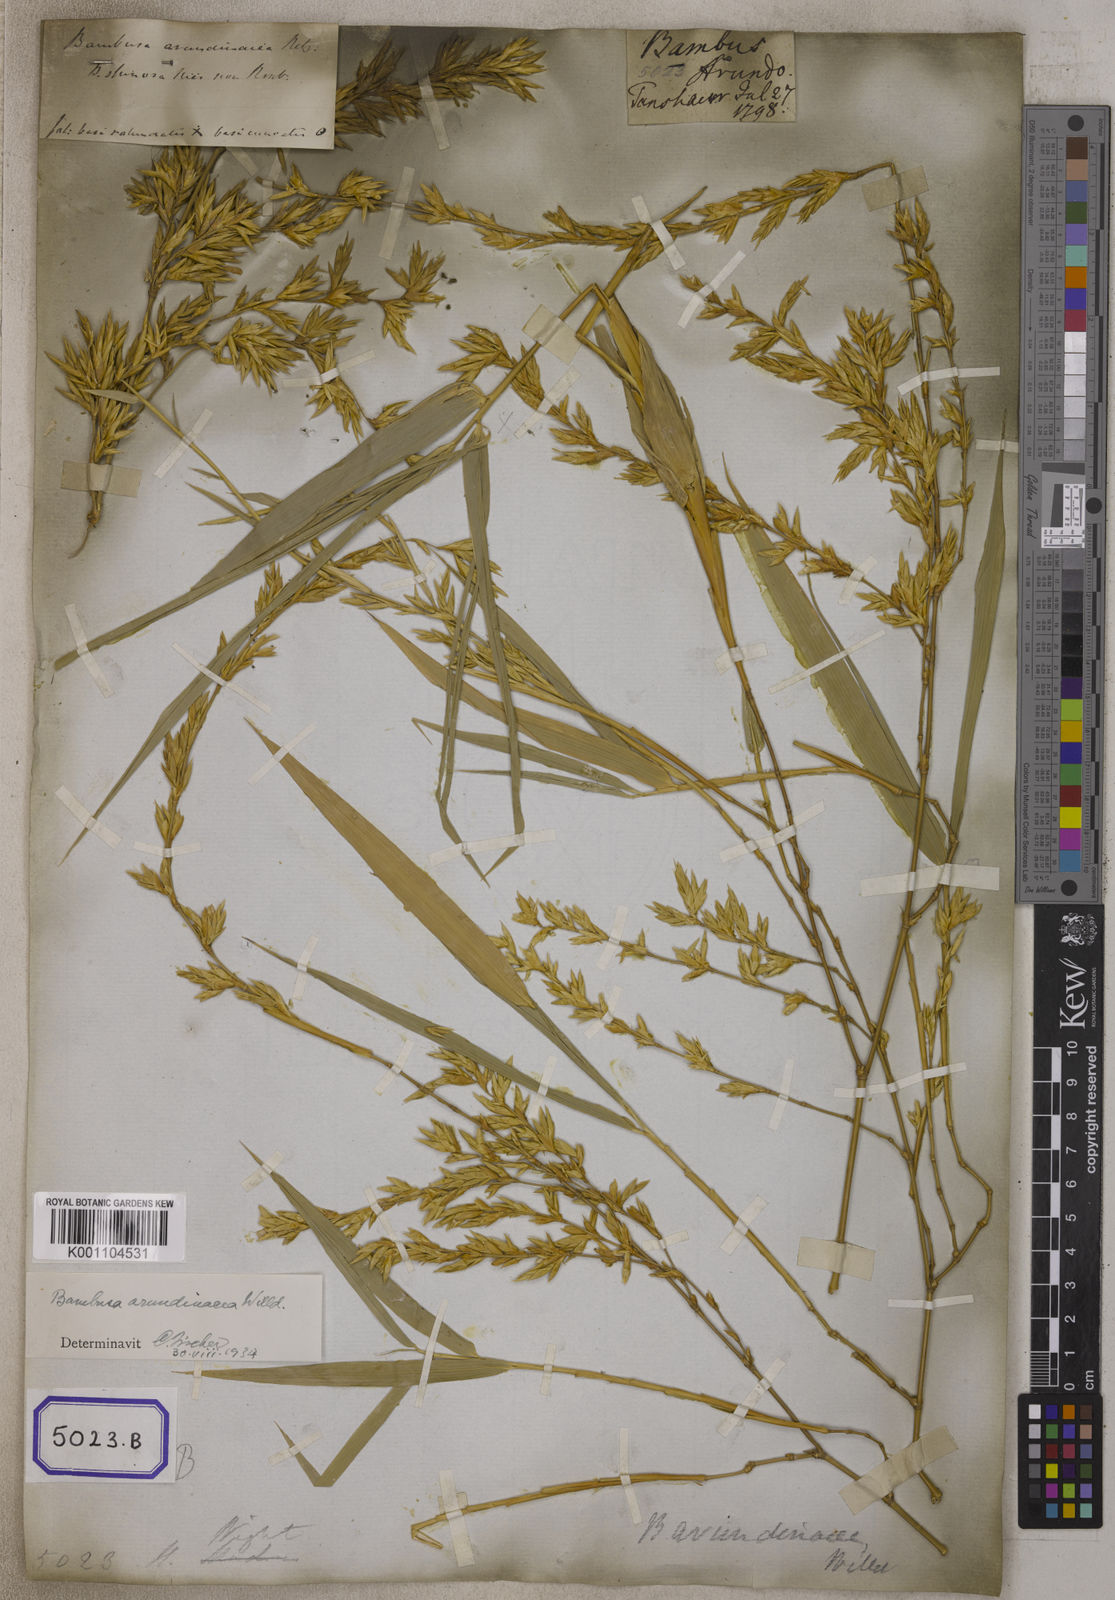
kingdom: Plantae
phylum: Tracheophyta
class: Liliopsida
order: Poales
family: Poaceae
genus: Bambusa
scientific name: Bambusa
